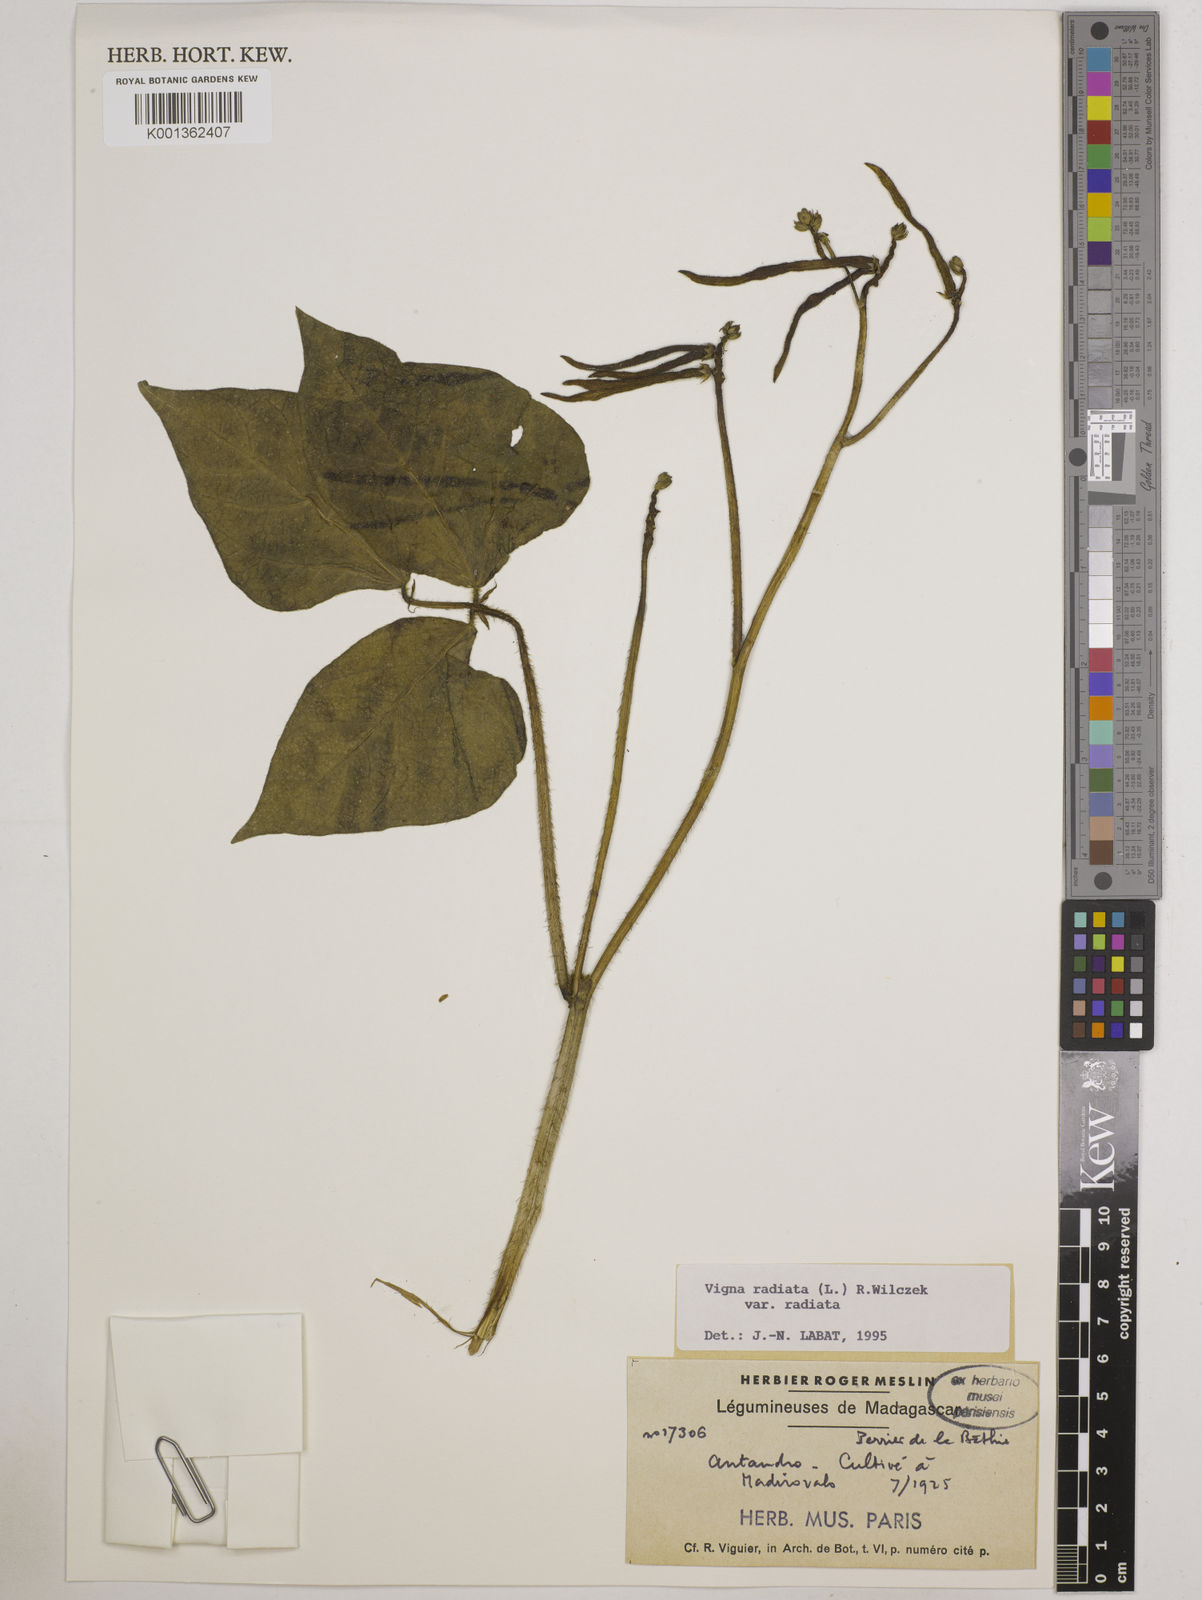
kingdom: Plantae
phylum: Tracheophyta
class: Magnoliopsida
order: Fabales
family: Fabaceae
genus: Vigna
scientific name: Vigna radiata
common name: Mung-bean
